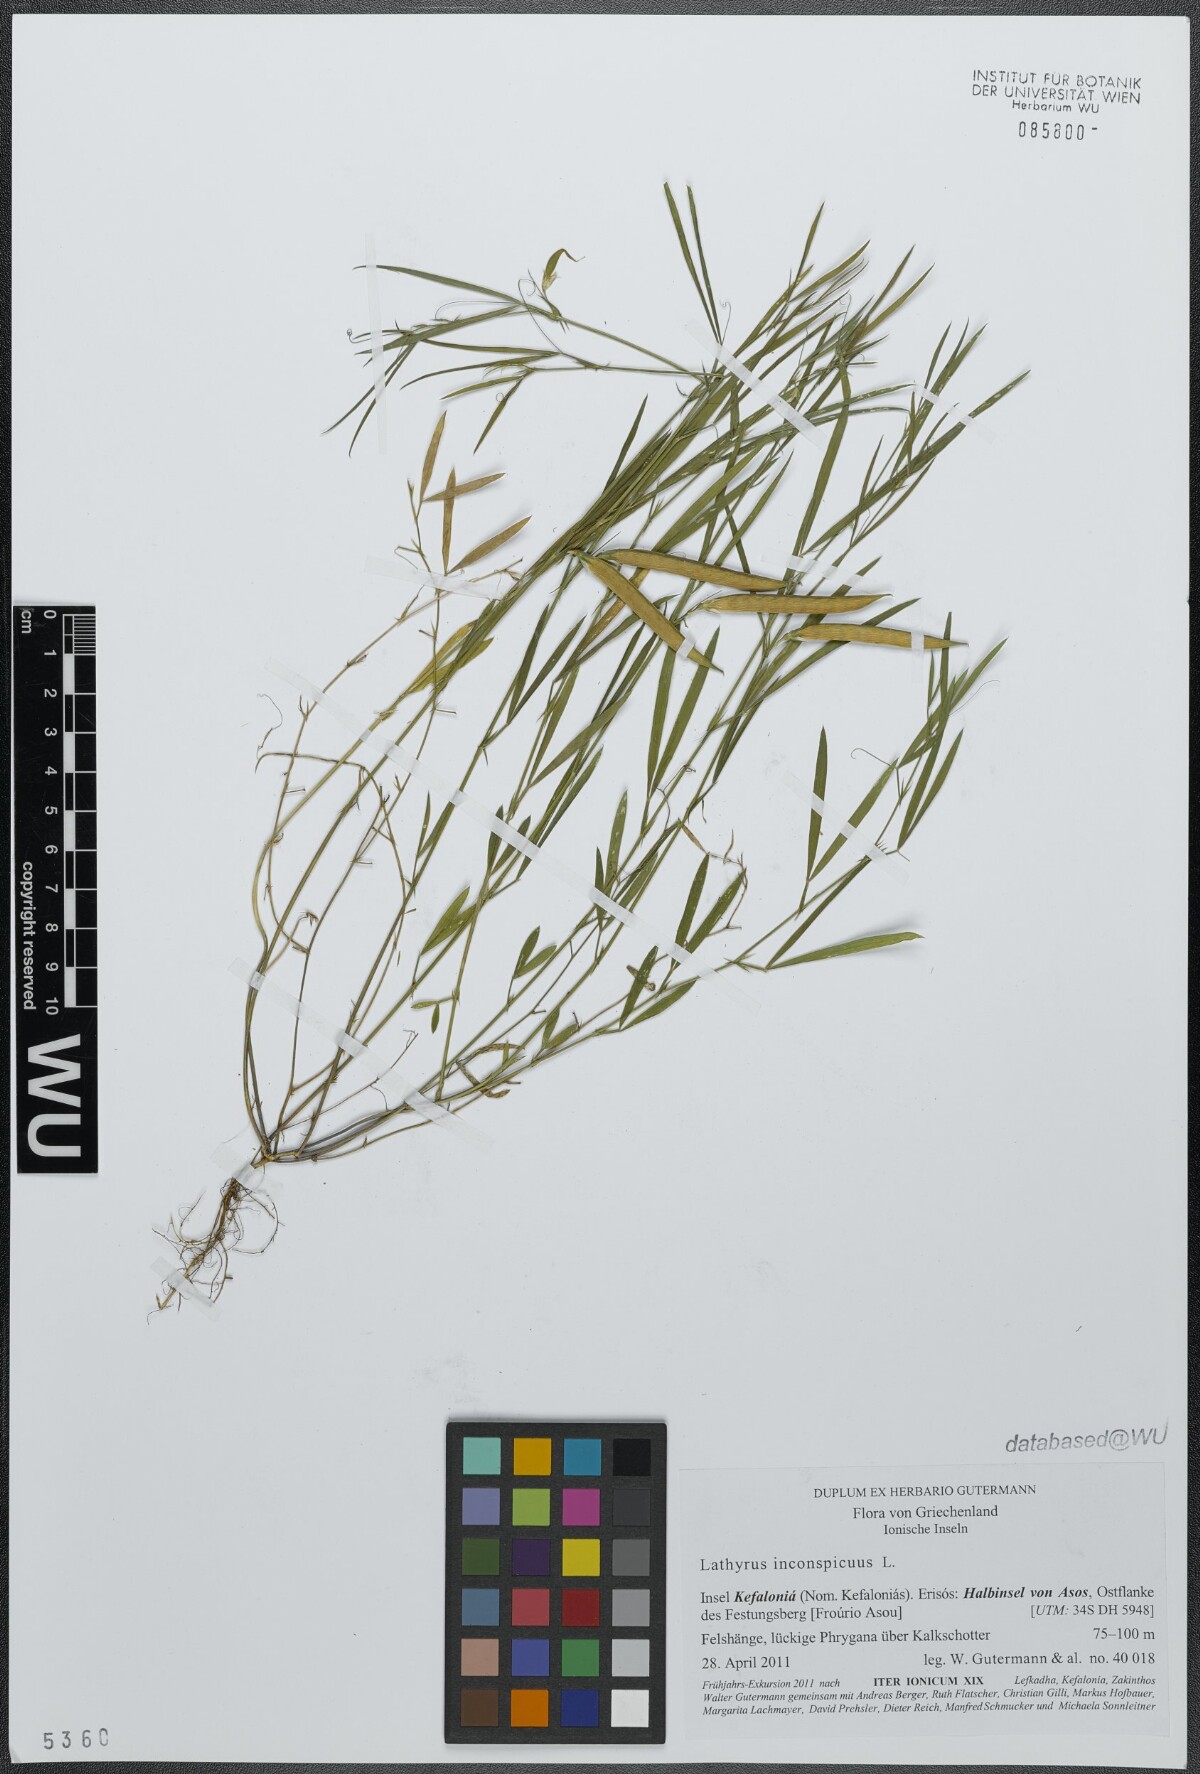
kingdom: Plantae
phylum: Tracheophyta
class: Magnoliopsida
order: Fabales
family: Fabaceae
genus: Lathyrus
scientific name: Lathyrus inconspicuus
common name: Inconspicuous pea
